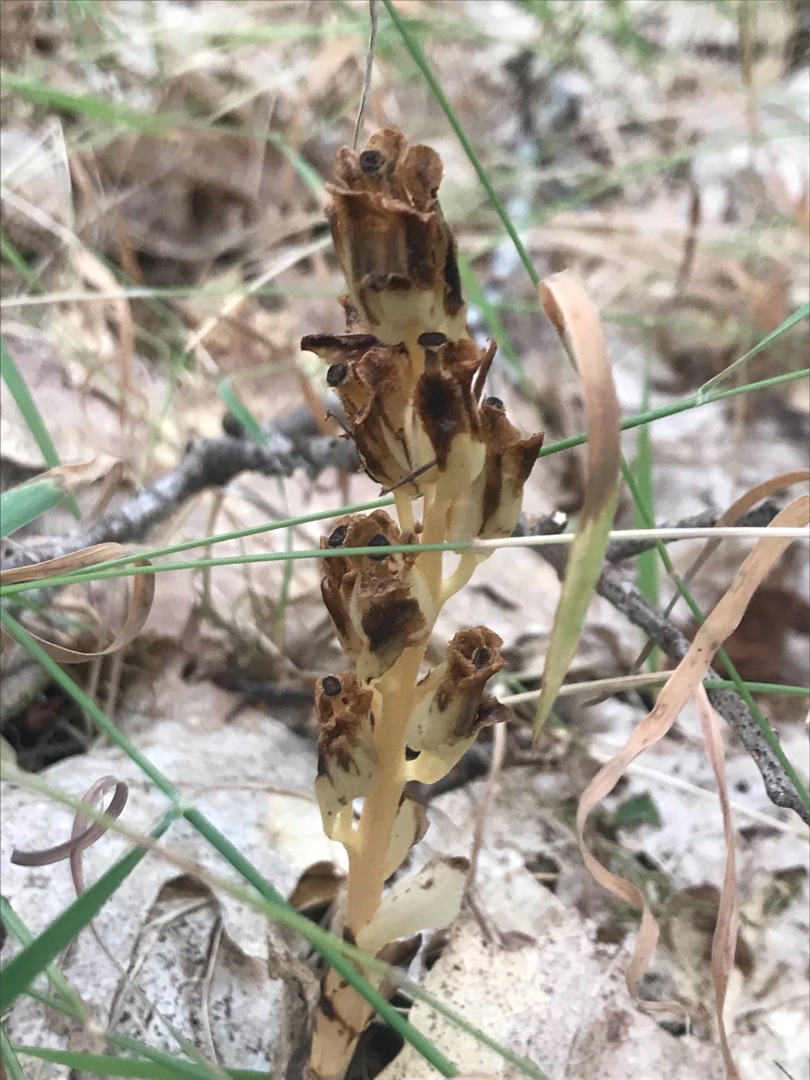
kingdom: Plantae
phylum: Tracheophyta
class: Magnoliopsida
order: Ericales
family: Ericaceae
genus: Hypopitys
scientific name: Hypopitys monotropa
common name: Snylterod
